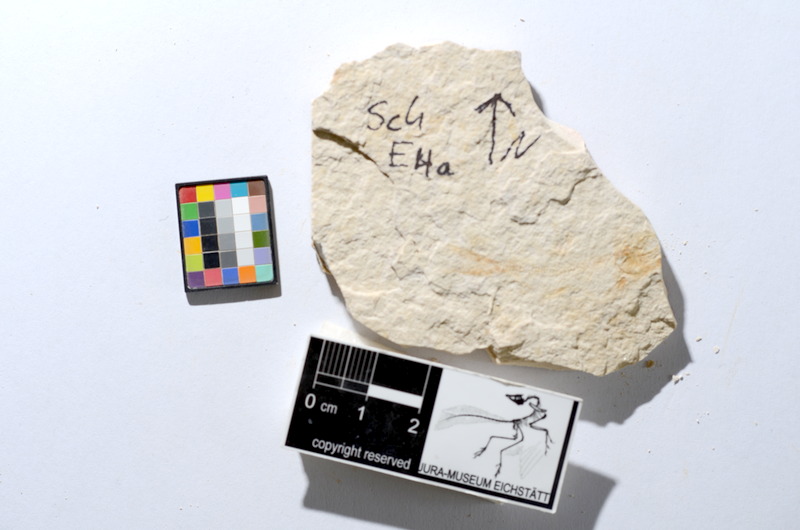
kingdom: Animalia
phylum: Chordata
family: Ascalaboidae
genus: Tharsis
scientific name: Tharsis dubius
